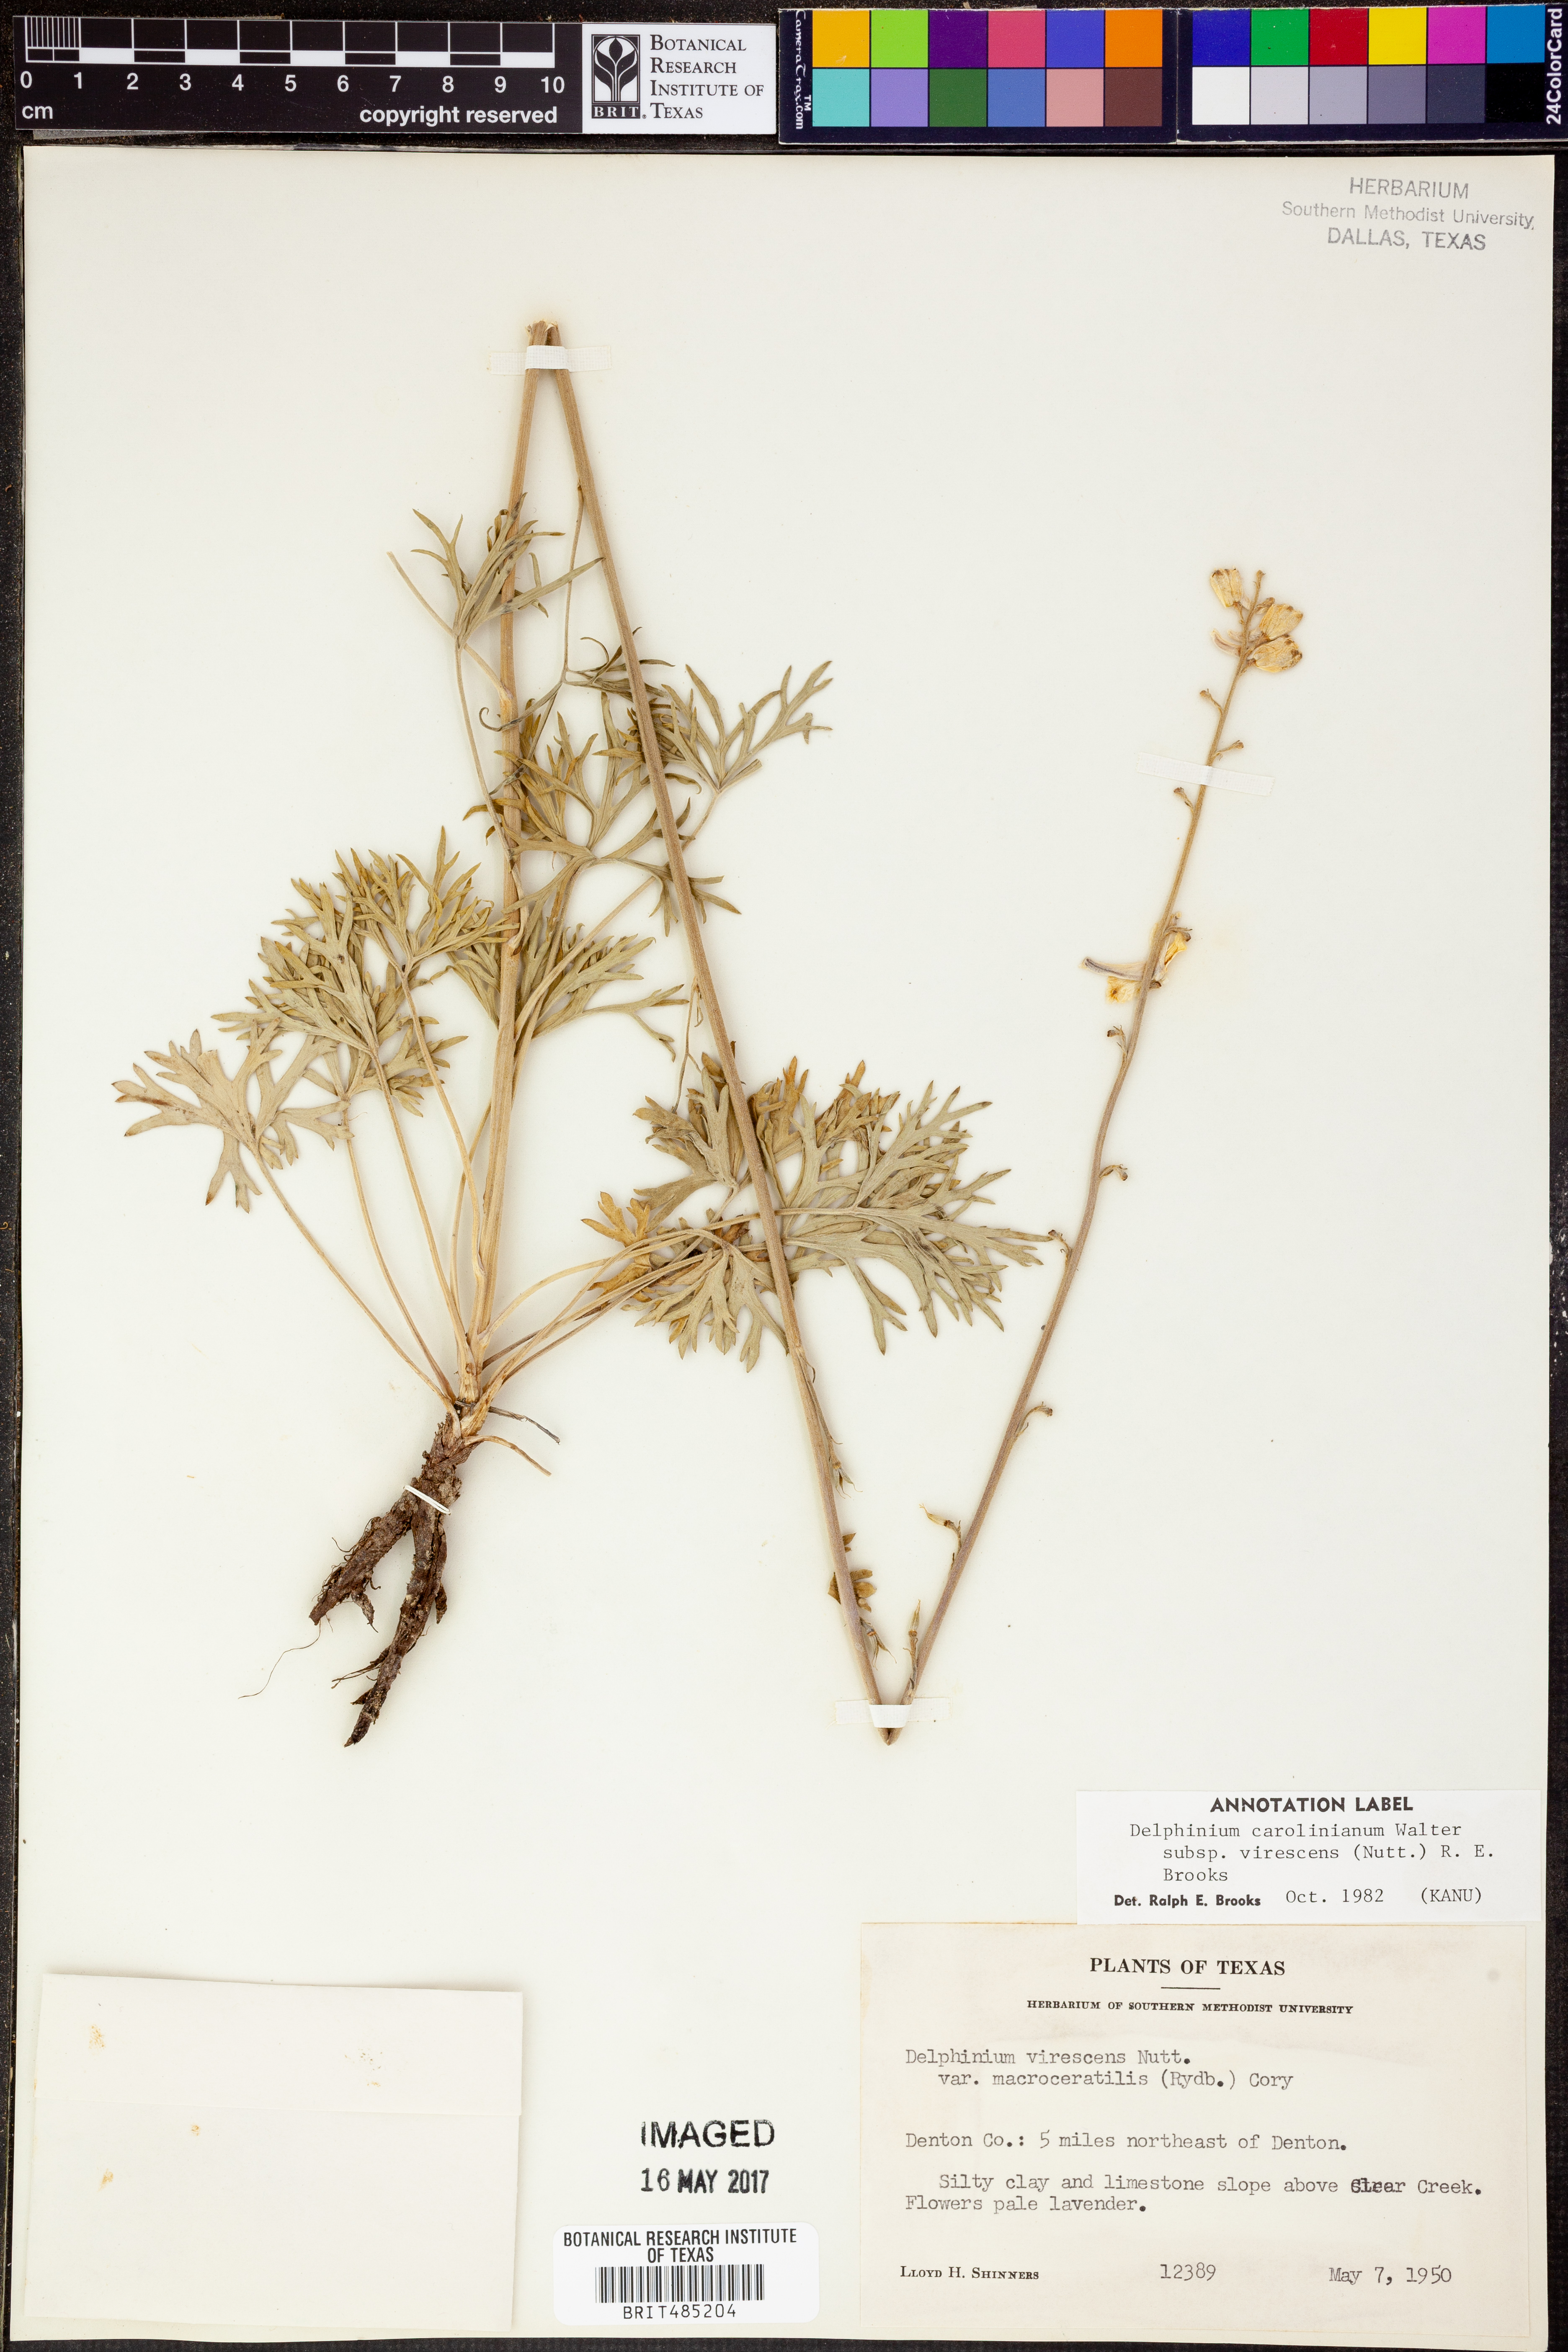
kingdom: Plantae
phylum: Tracheophyta
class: Magnoliopsida
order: Ranunculales
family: Ranunculaceae
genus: Delphinium
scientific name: Delphinium carolinianum
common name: Carolina larkspur
